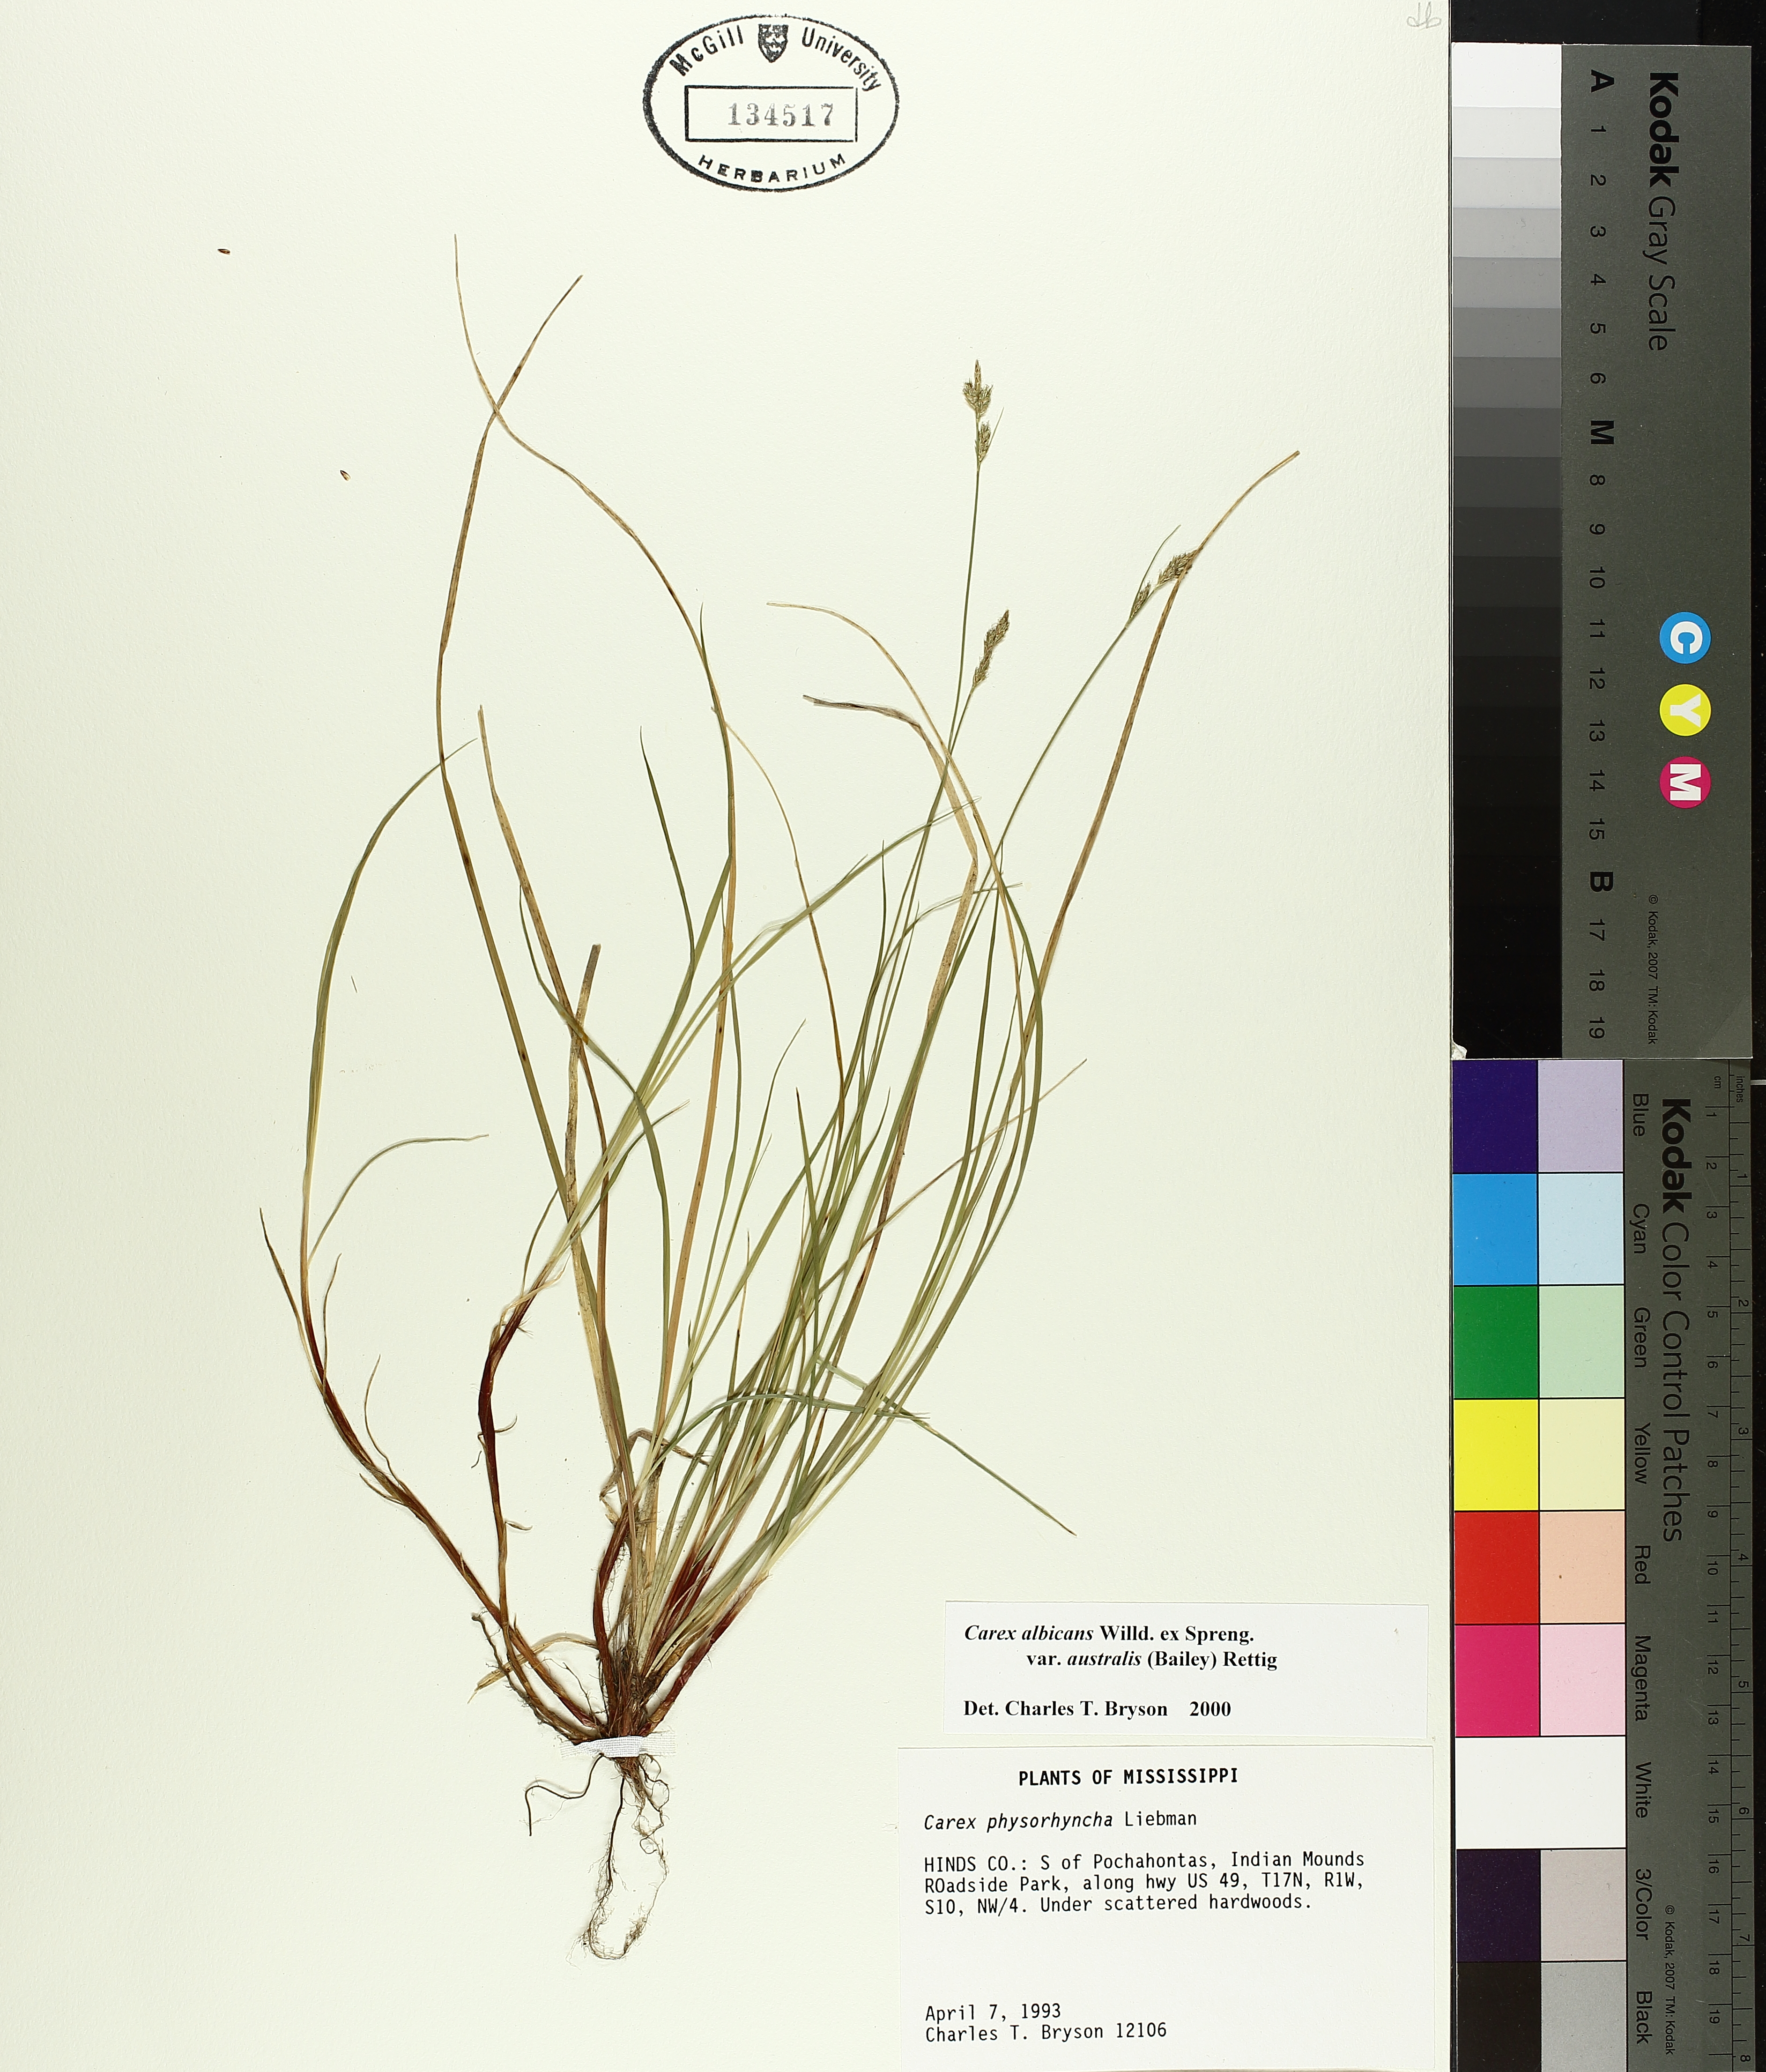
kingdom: Plantae
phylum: Tracheophyta
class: Liliopsida
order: Poales
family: Cyperaceae
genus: Carex
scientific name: Carex albicans
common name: Bellow-beaked sedge
